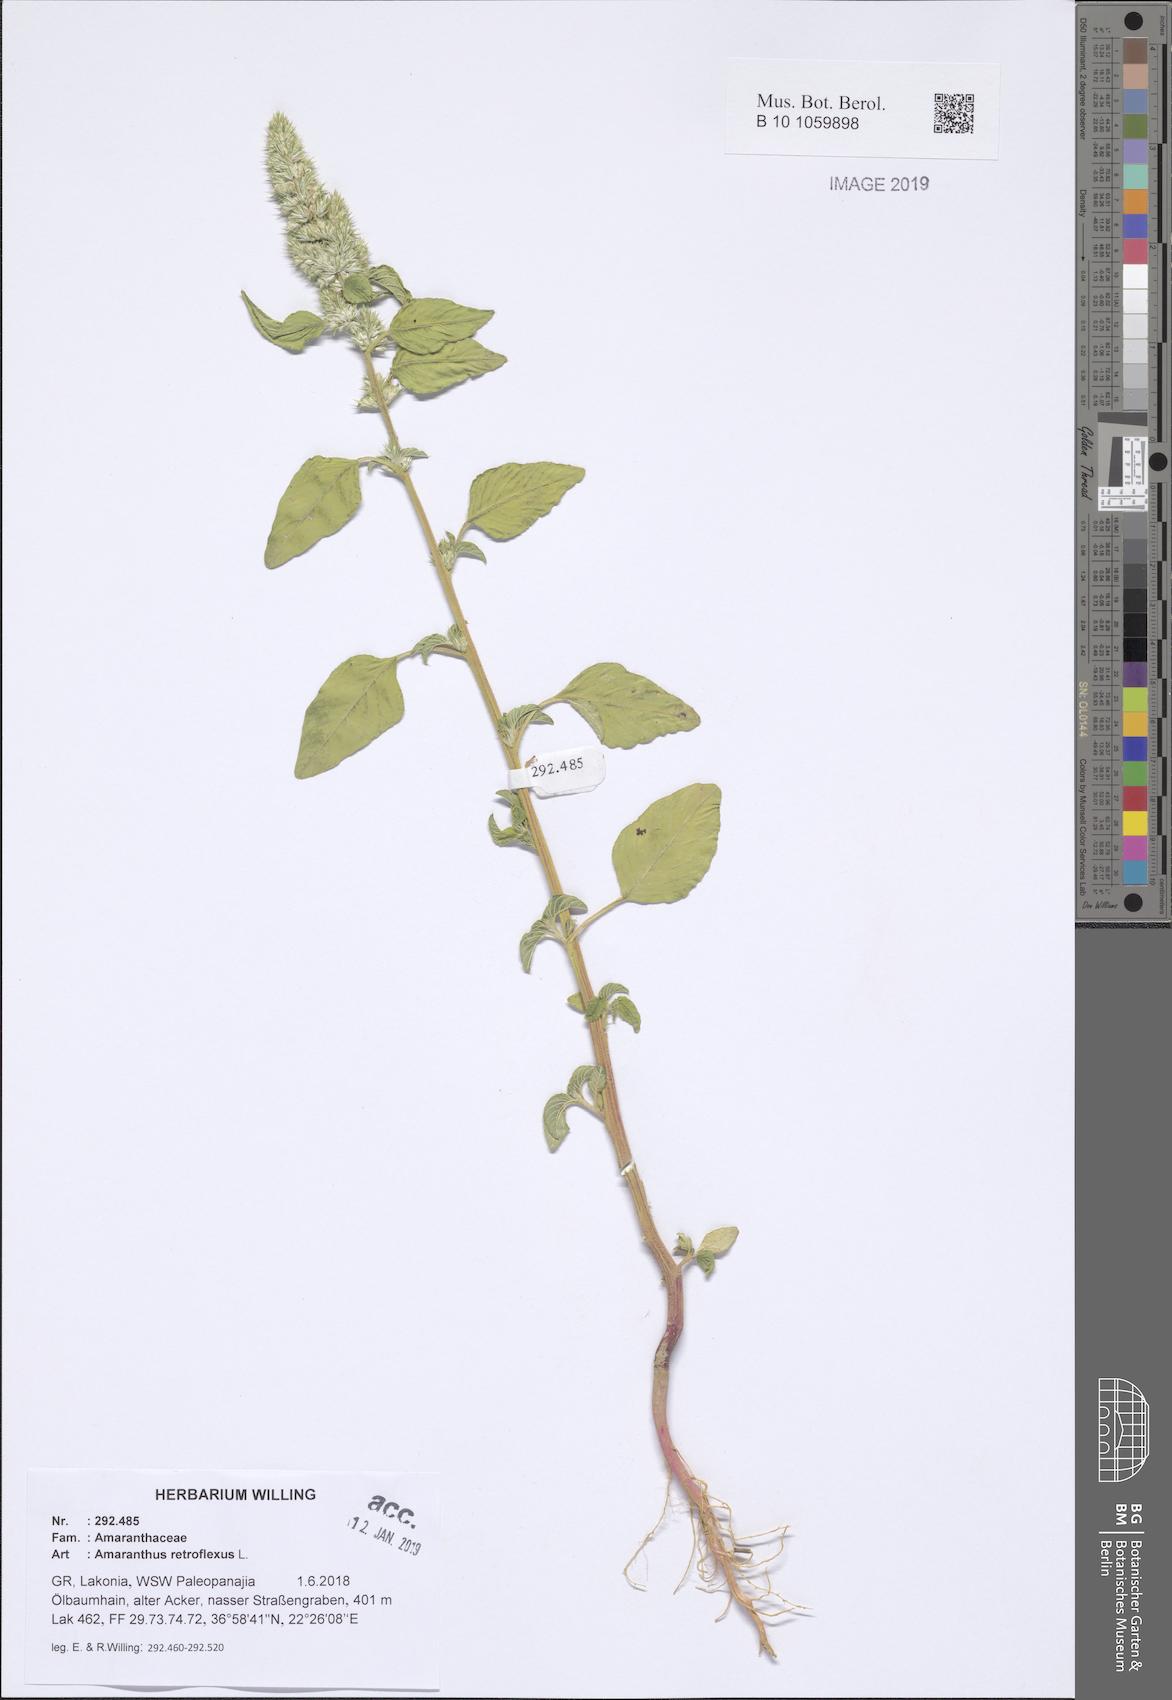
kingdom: Plantae
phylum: Tracheophyta
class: Magnoliopsida
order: Caryophyllales
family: Amaranthaceae
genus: Amaranthus
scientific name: Amaranthus retroflexus
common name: Redroot amaranth
